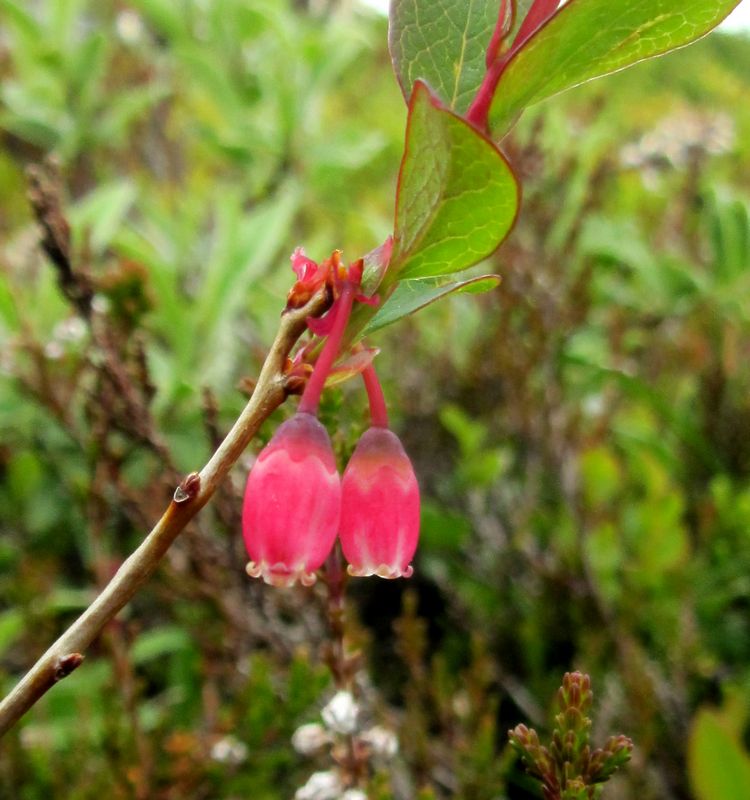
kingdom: Plantae
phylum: Tracheophyta
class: Magnoliopsida
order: Ericales
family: Ericaceae
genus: Vaccinium
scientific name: Vaccinium uliginosum
